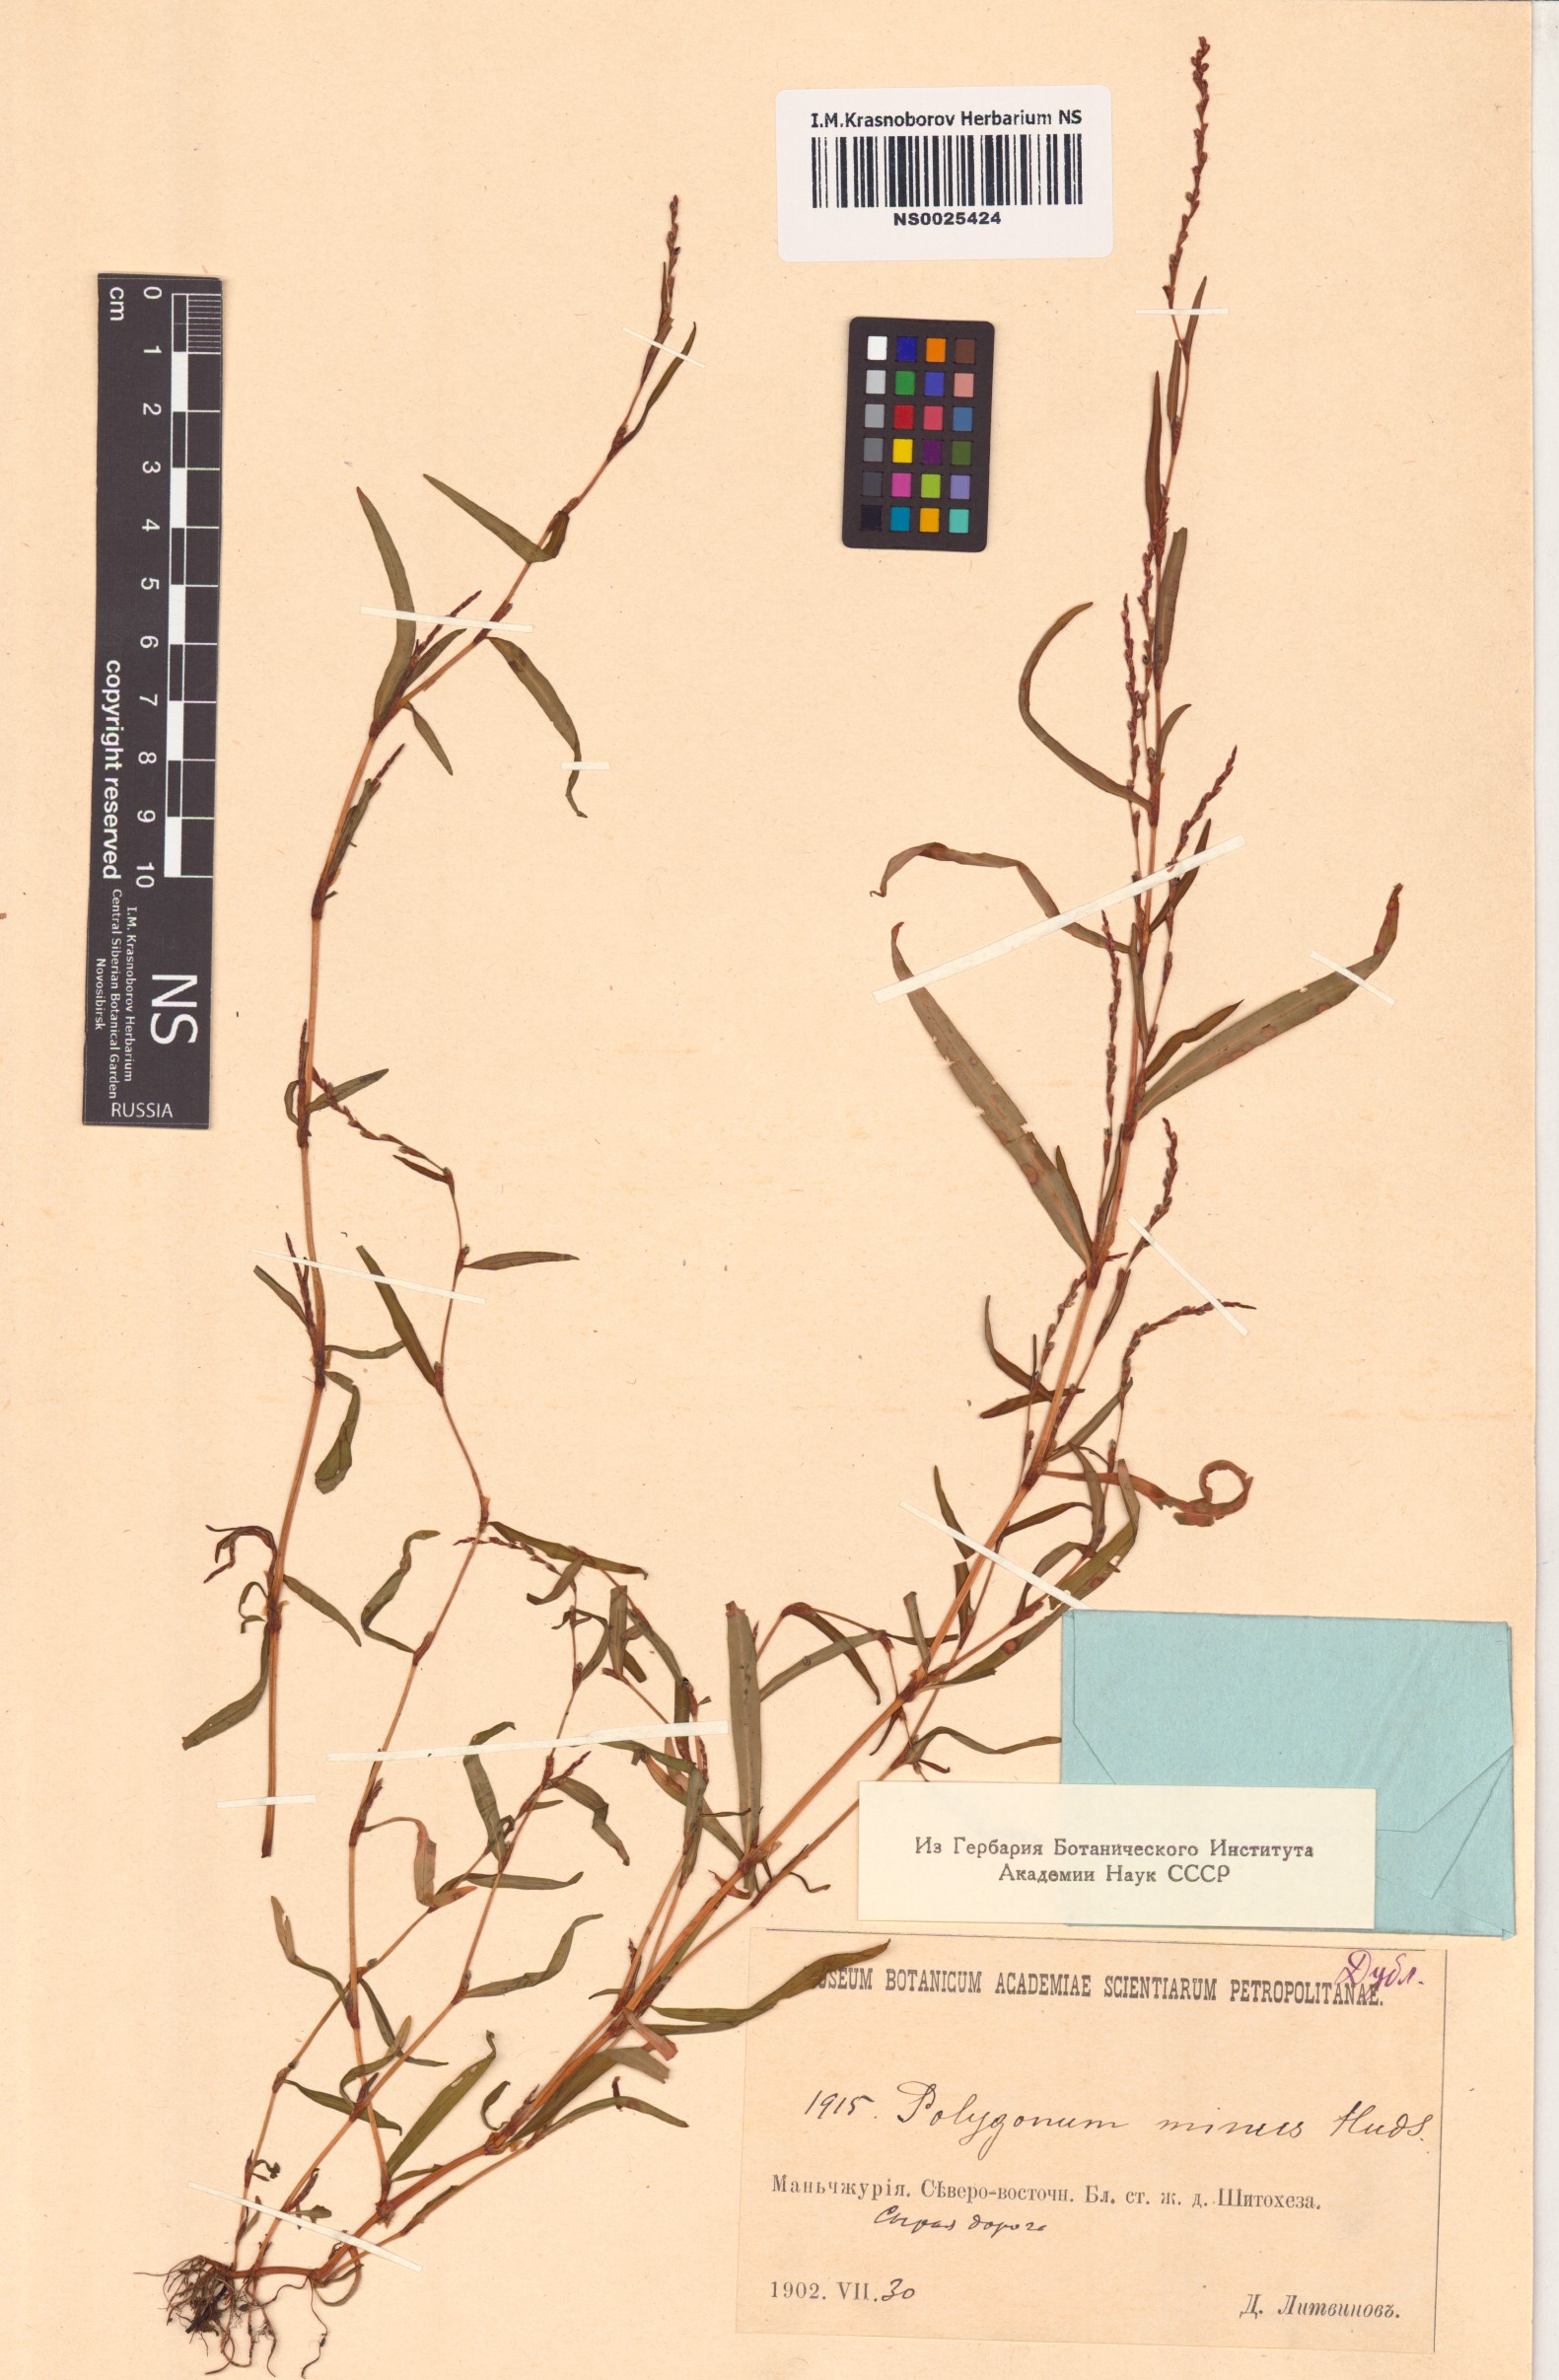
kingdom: Plantae
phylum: Tracheophyta
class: Magnoliopsida
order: Caryophyllales
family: Polygonaceae
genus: Persicaria
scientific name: Persicaria minor
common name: Small water-pepper
